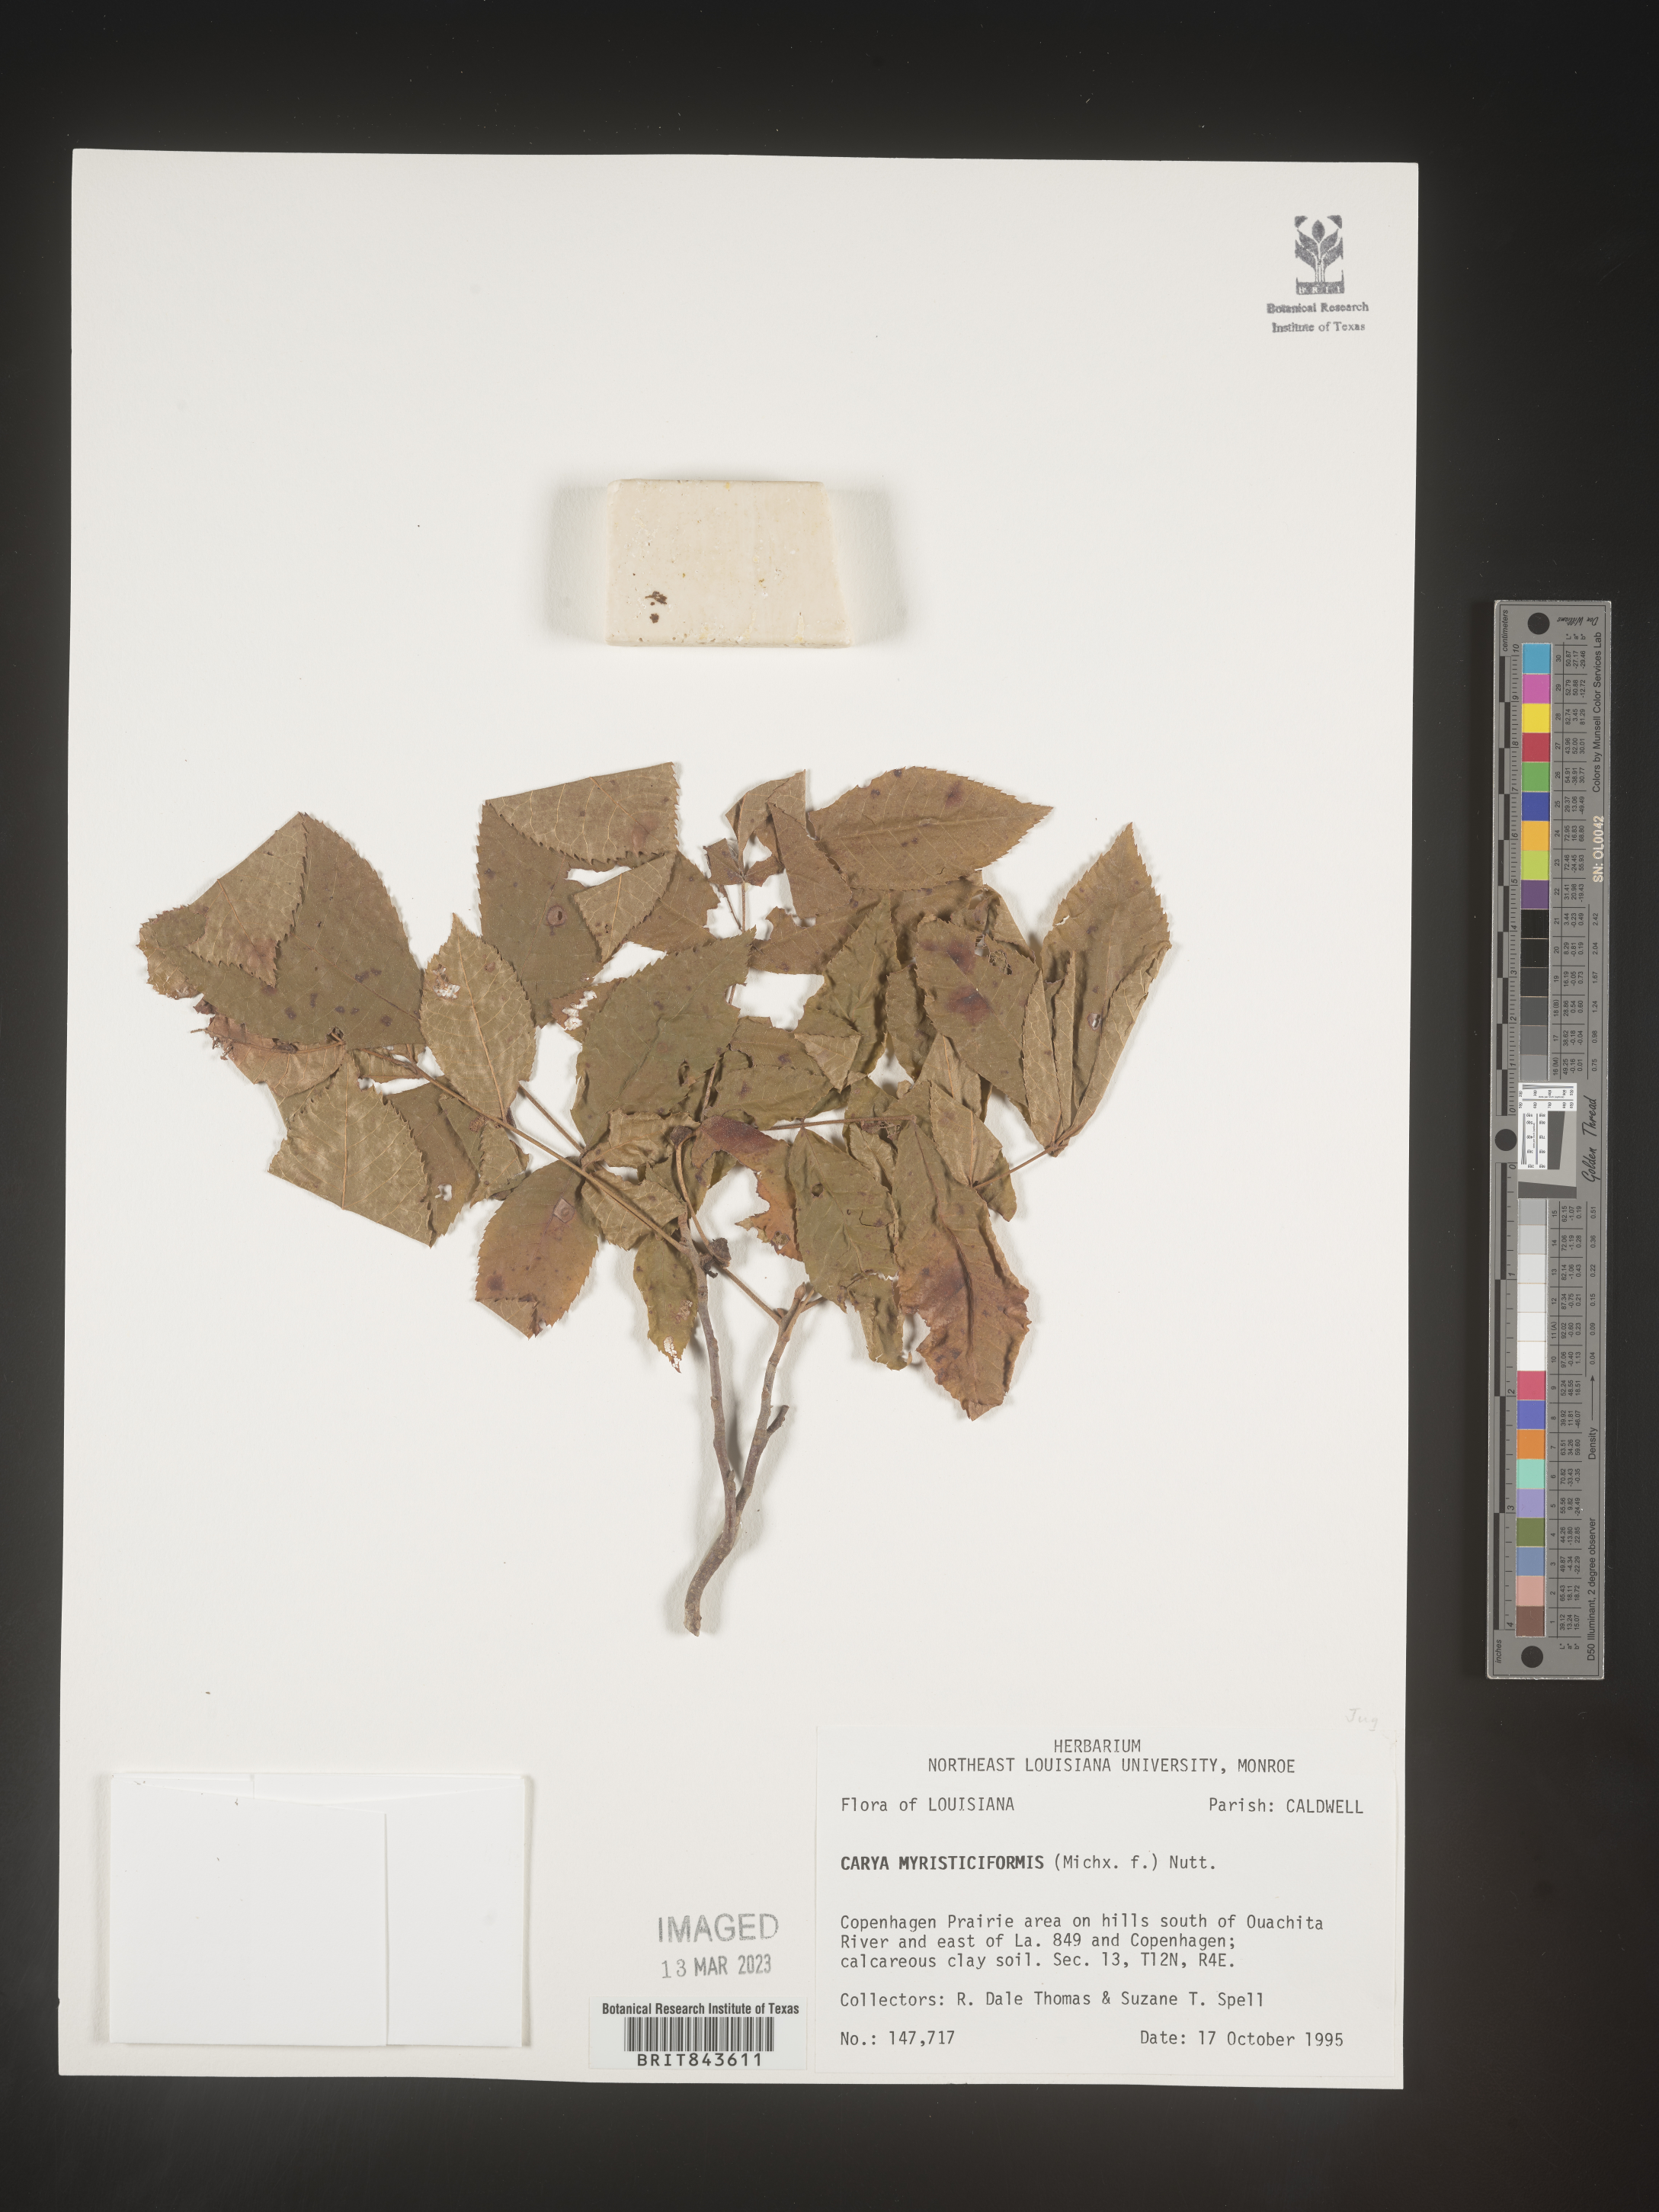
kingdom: Plantae
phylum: Tracheophyta
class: Magnoliopsida
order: Fagales
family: Juglandaceae
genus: Carya
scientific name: Carya myristiciformis
